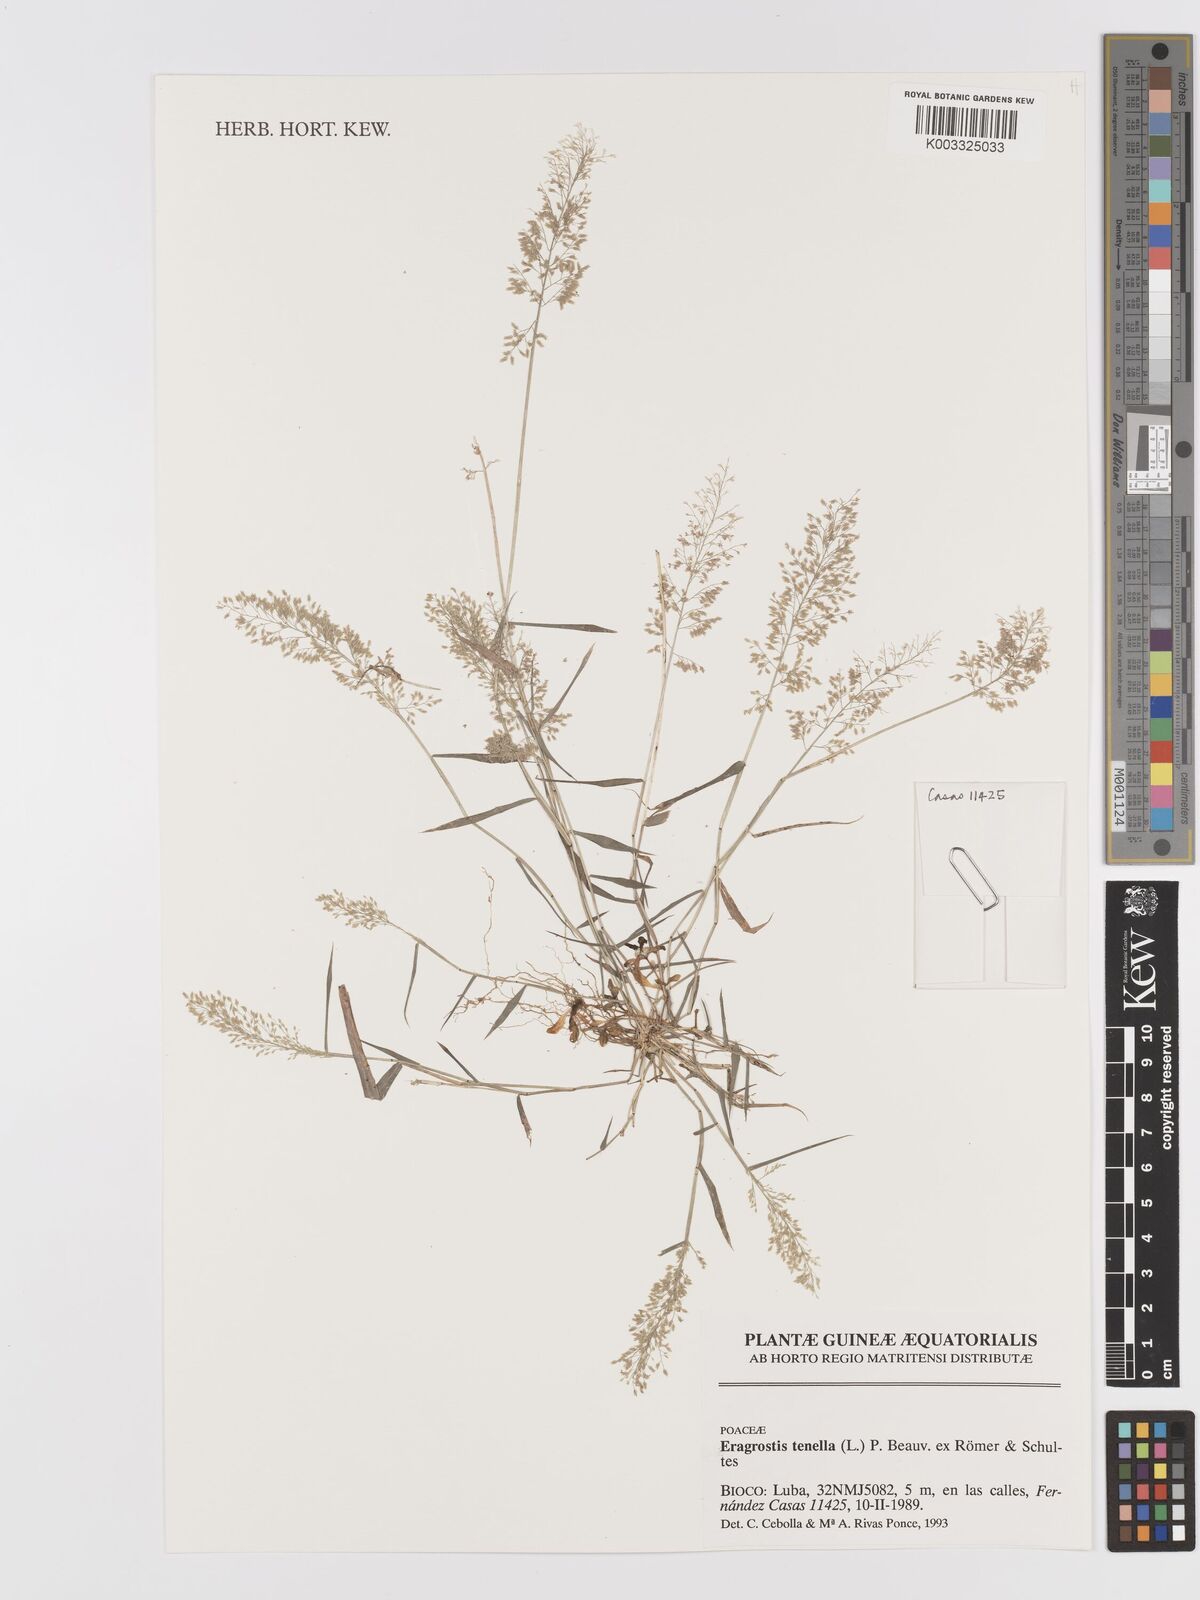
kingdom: Plantae
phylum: Tracheophyta
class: Liliopsida
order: Poales
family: Poaceae
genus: Eragrostis
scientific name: Eragrostis tenella
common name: Japanese lovegrass
